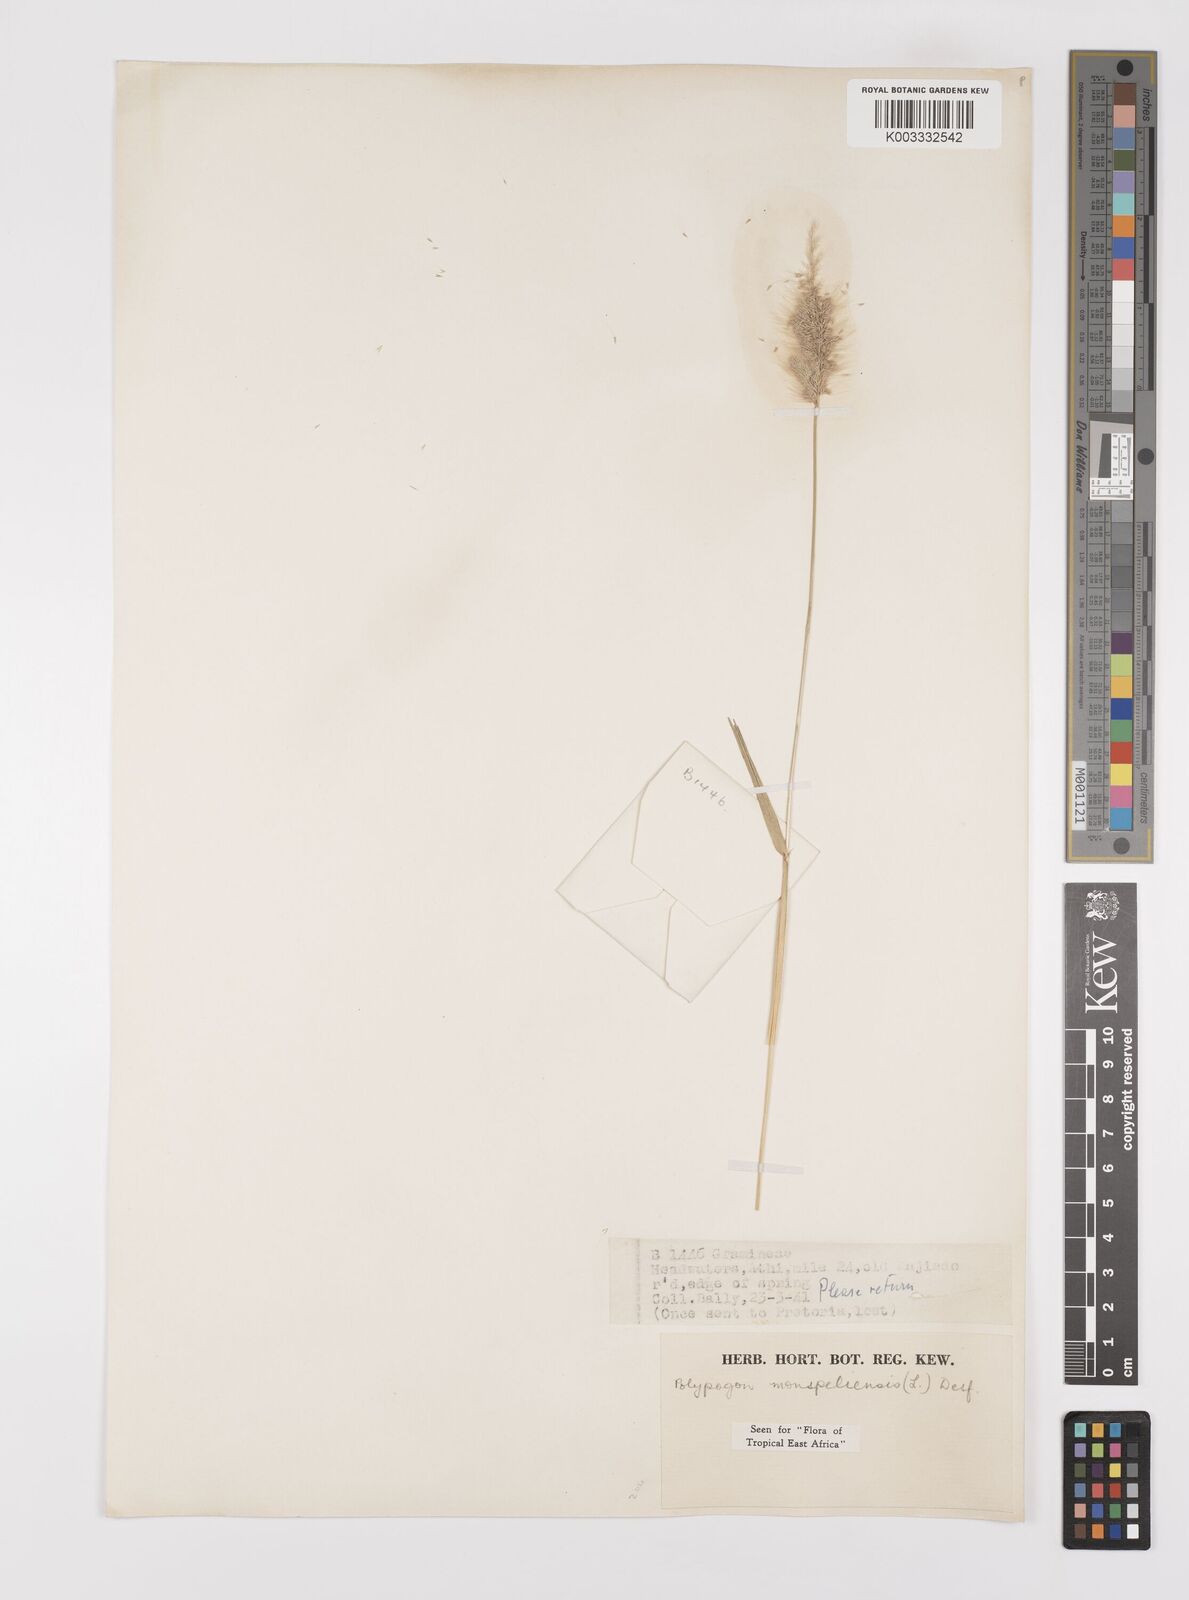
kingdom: Plantae
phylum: Tracheophyta
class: Liliopsida
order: Poales
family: Poaceae
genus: Polypogon
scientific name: Polypogon monspeliensis
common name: Annual rabbitsfoot grass
